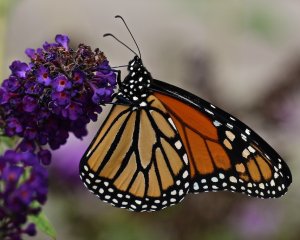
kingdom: Animalia
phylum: Arthropoda
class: Insecta
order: Lepidoptera
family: Nymphalidae
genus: Danaus
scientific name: Danaus plexippus
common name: Monarch
